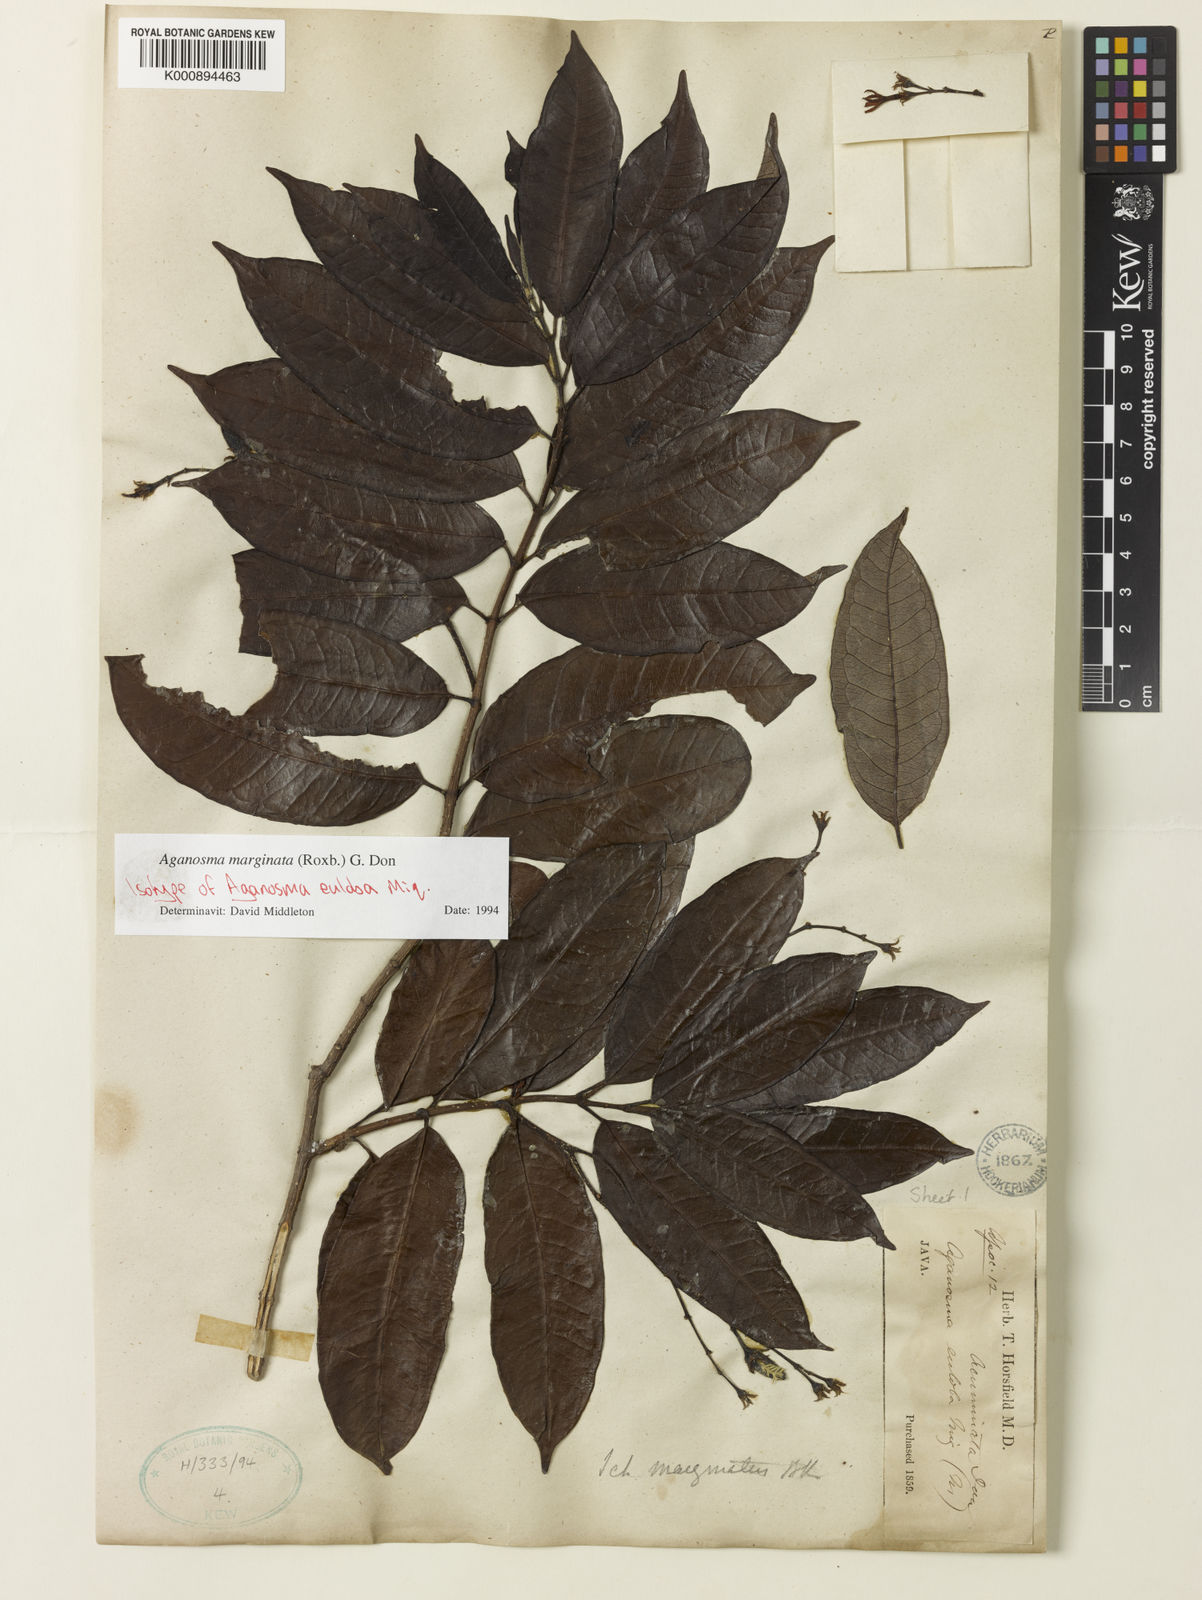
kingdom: Plantae
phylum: Tracheophyta
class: Magnoliopsida
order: Gentianales
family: Apocynaceae
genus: Amphineurion
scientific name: Amphineurion marginatum
